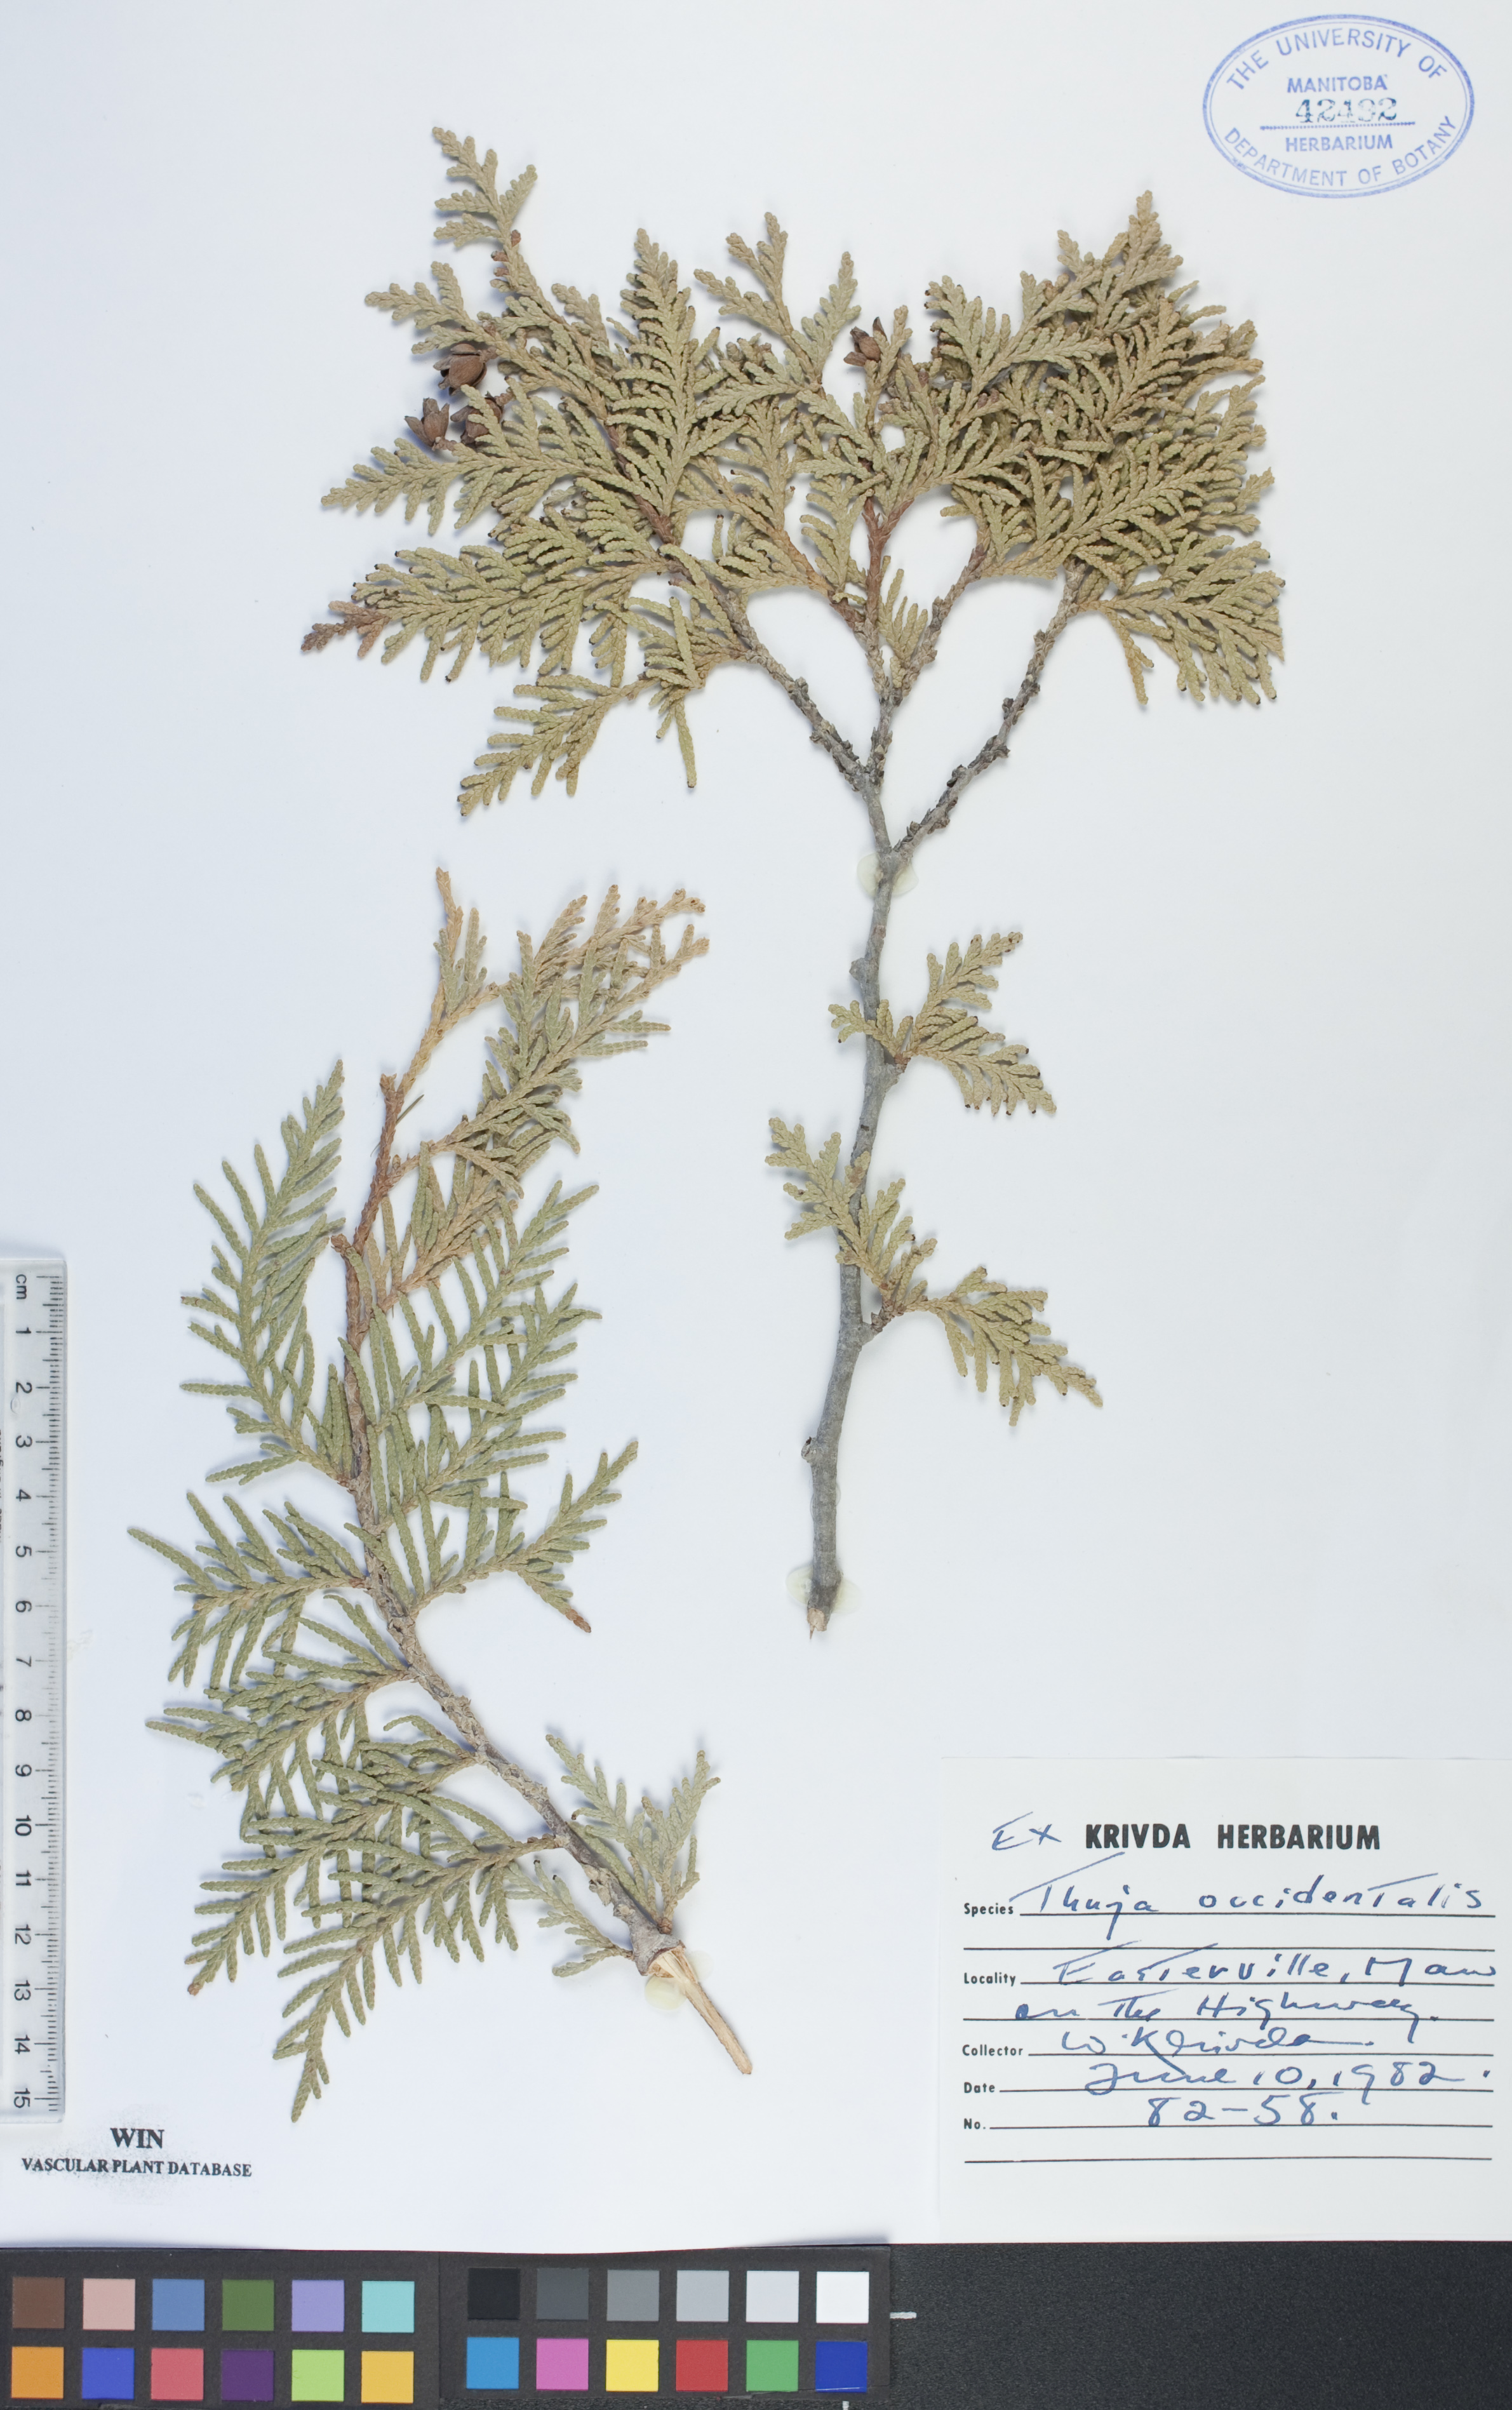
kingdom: Plantae
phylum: Tracheophyta
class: Pinopsida
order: Pinales
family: Cupressaceae
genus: Thuja
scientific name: Thuja occidentalis
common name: Northern white-cedar
